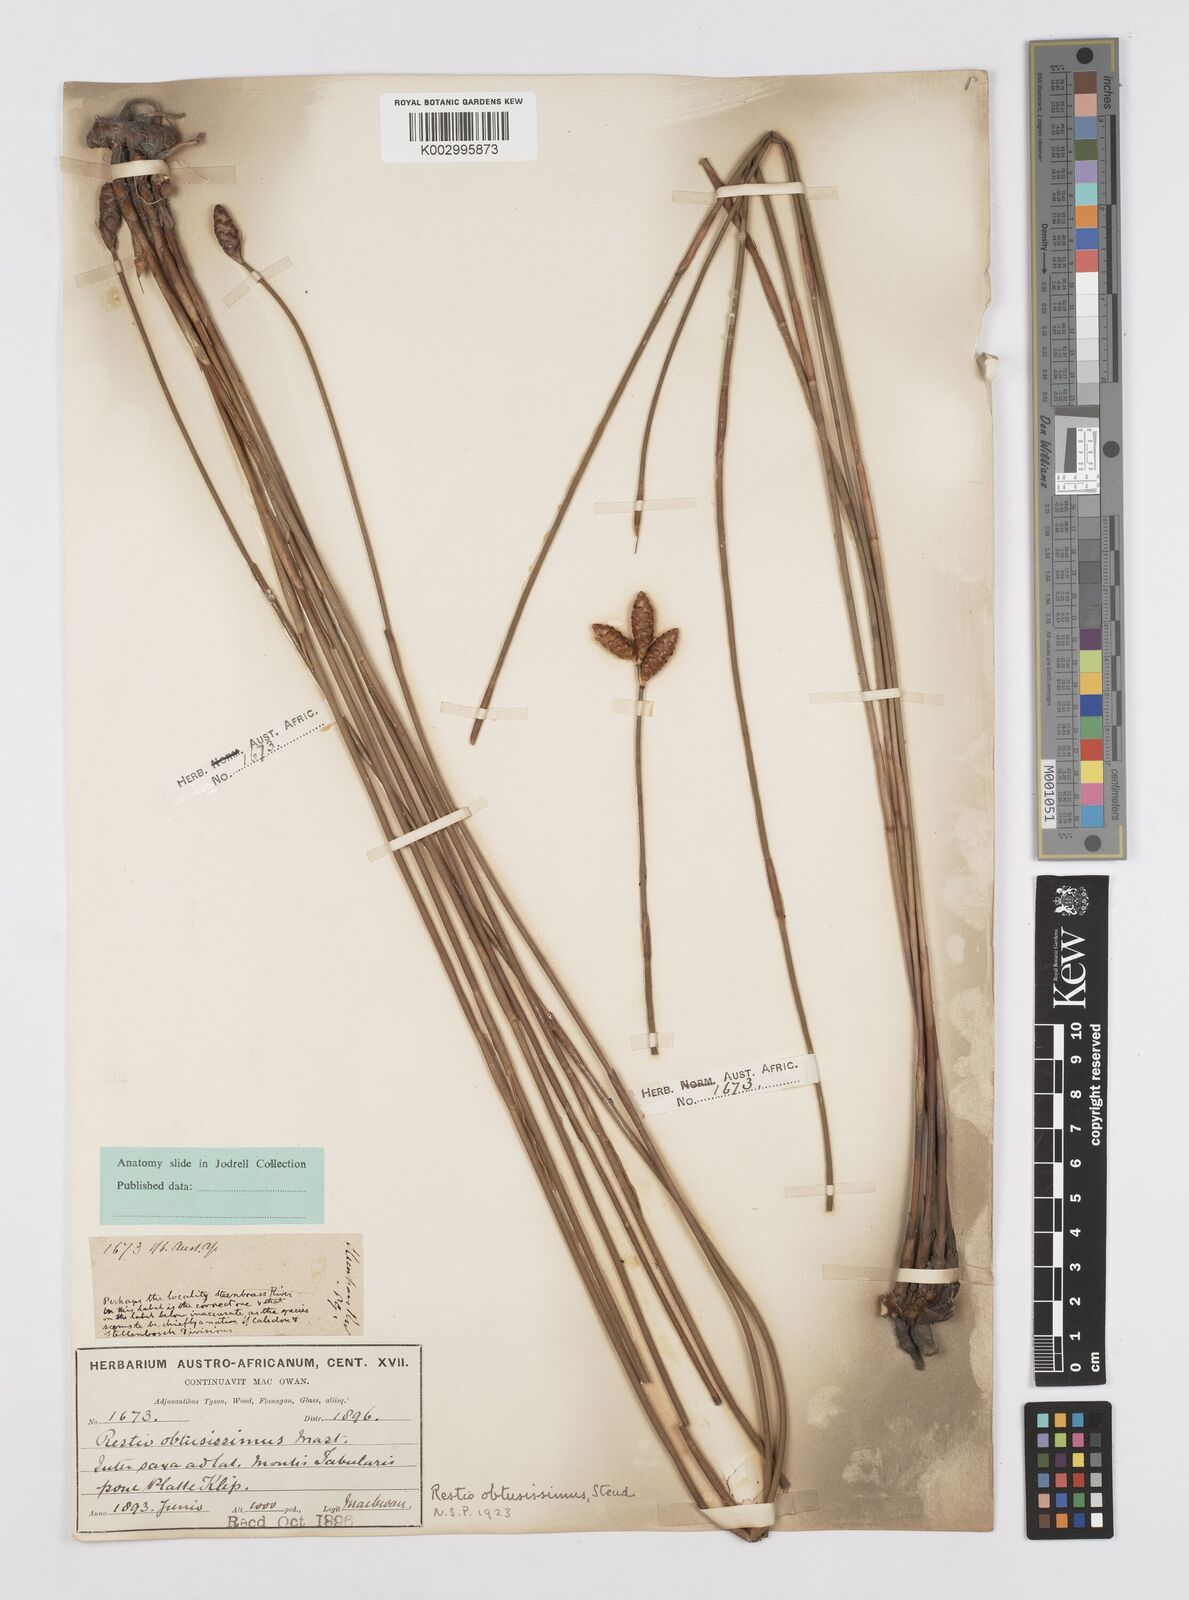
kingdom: Plantae
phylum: Tracheophyta
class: Liliopsida
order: Poales
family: Restionaceae
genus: Nevillea
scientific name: Nevillea obtusissimus
